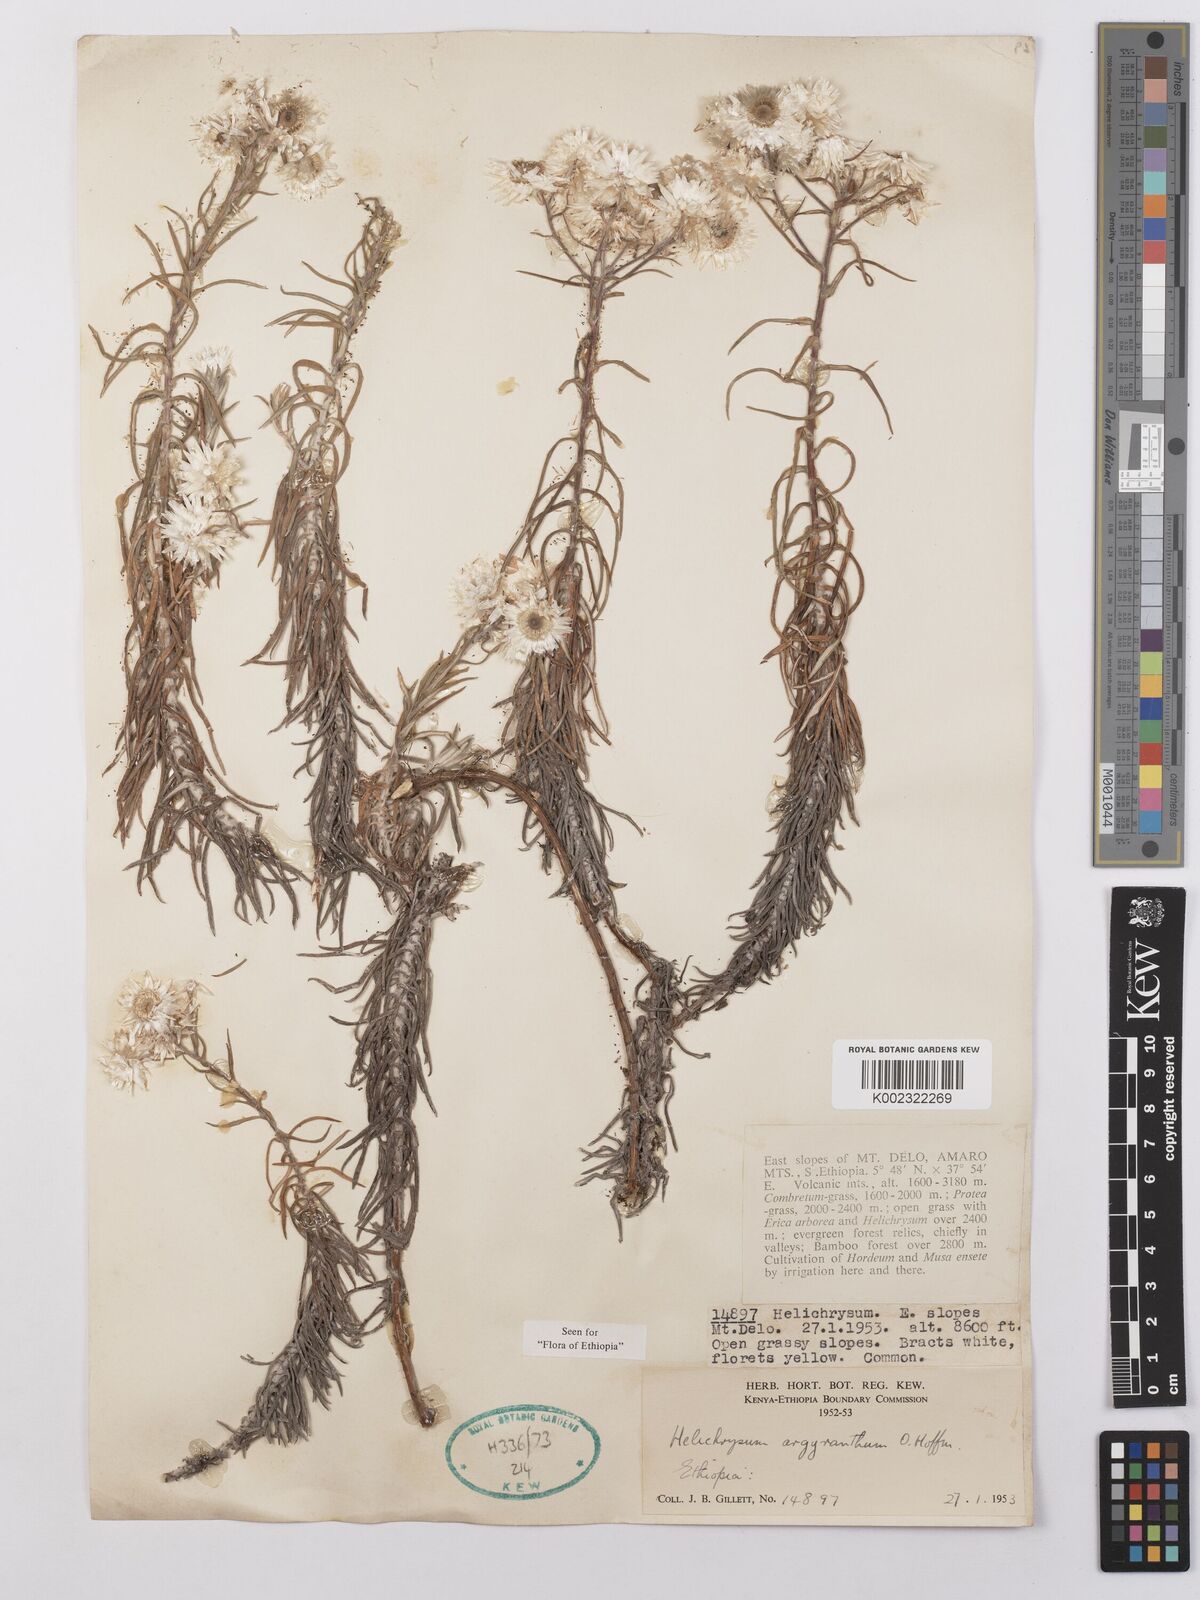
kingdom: Plantae
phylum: Tracheophyta
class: Magnoliopsida
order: Asterales
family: Asteraceae
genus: Helichrysum
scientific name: Helichrysum argyranthum
